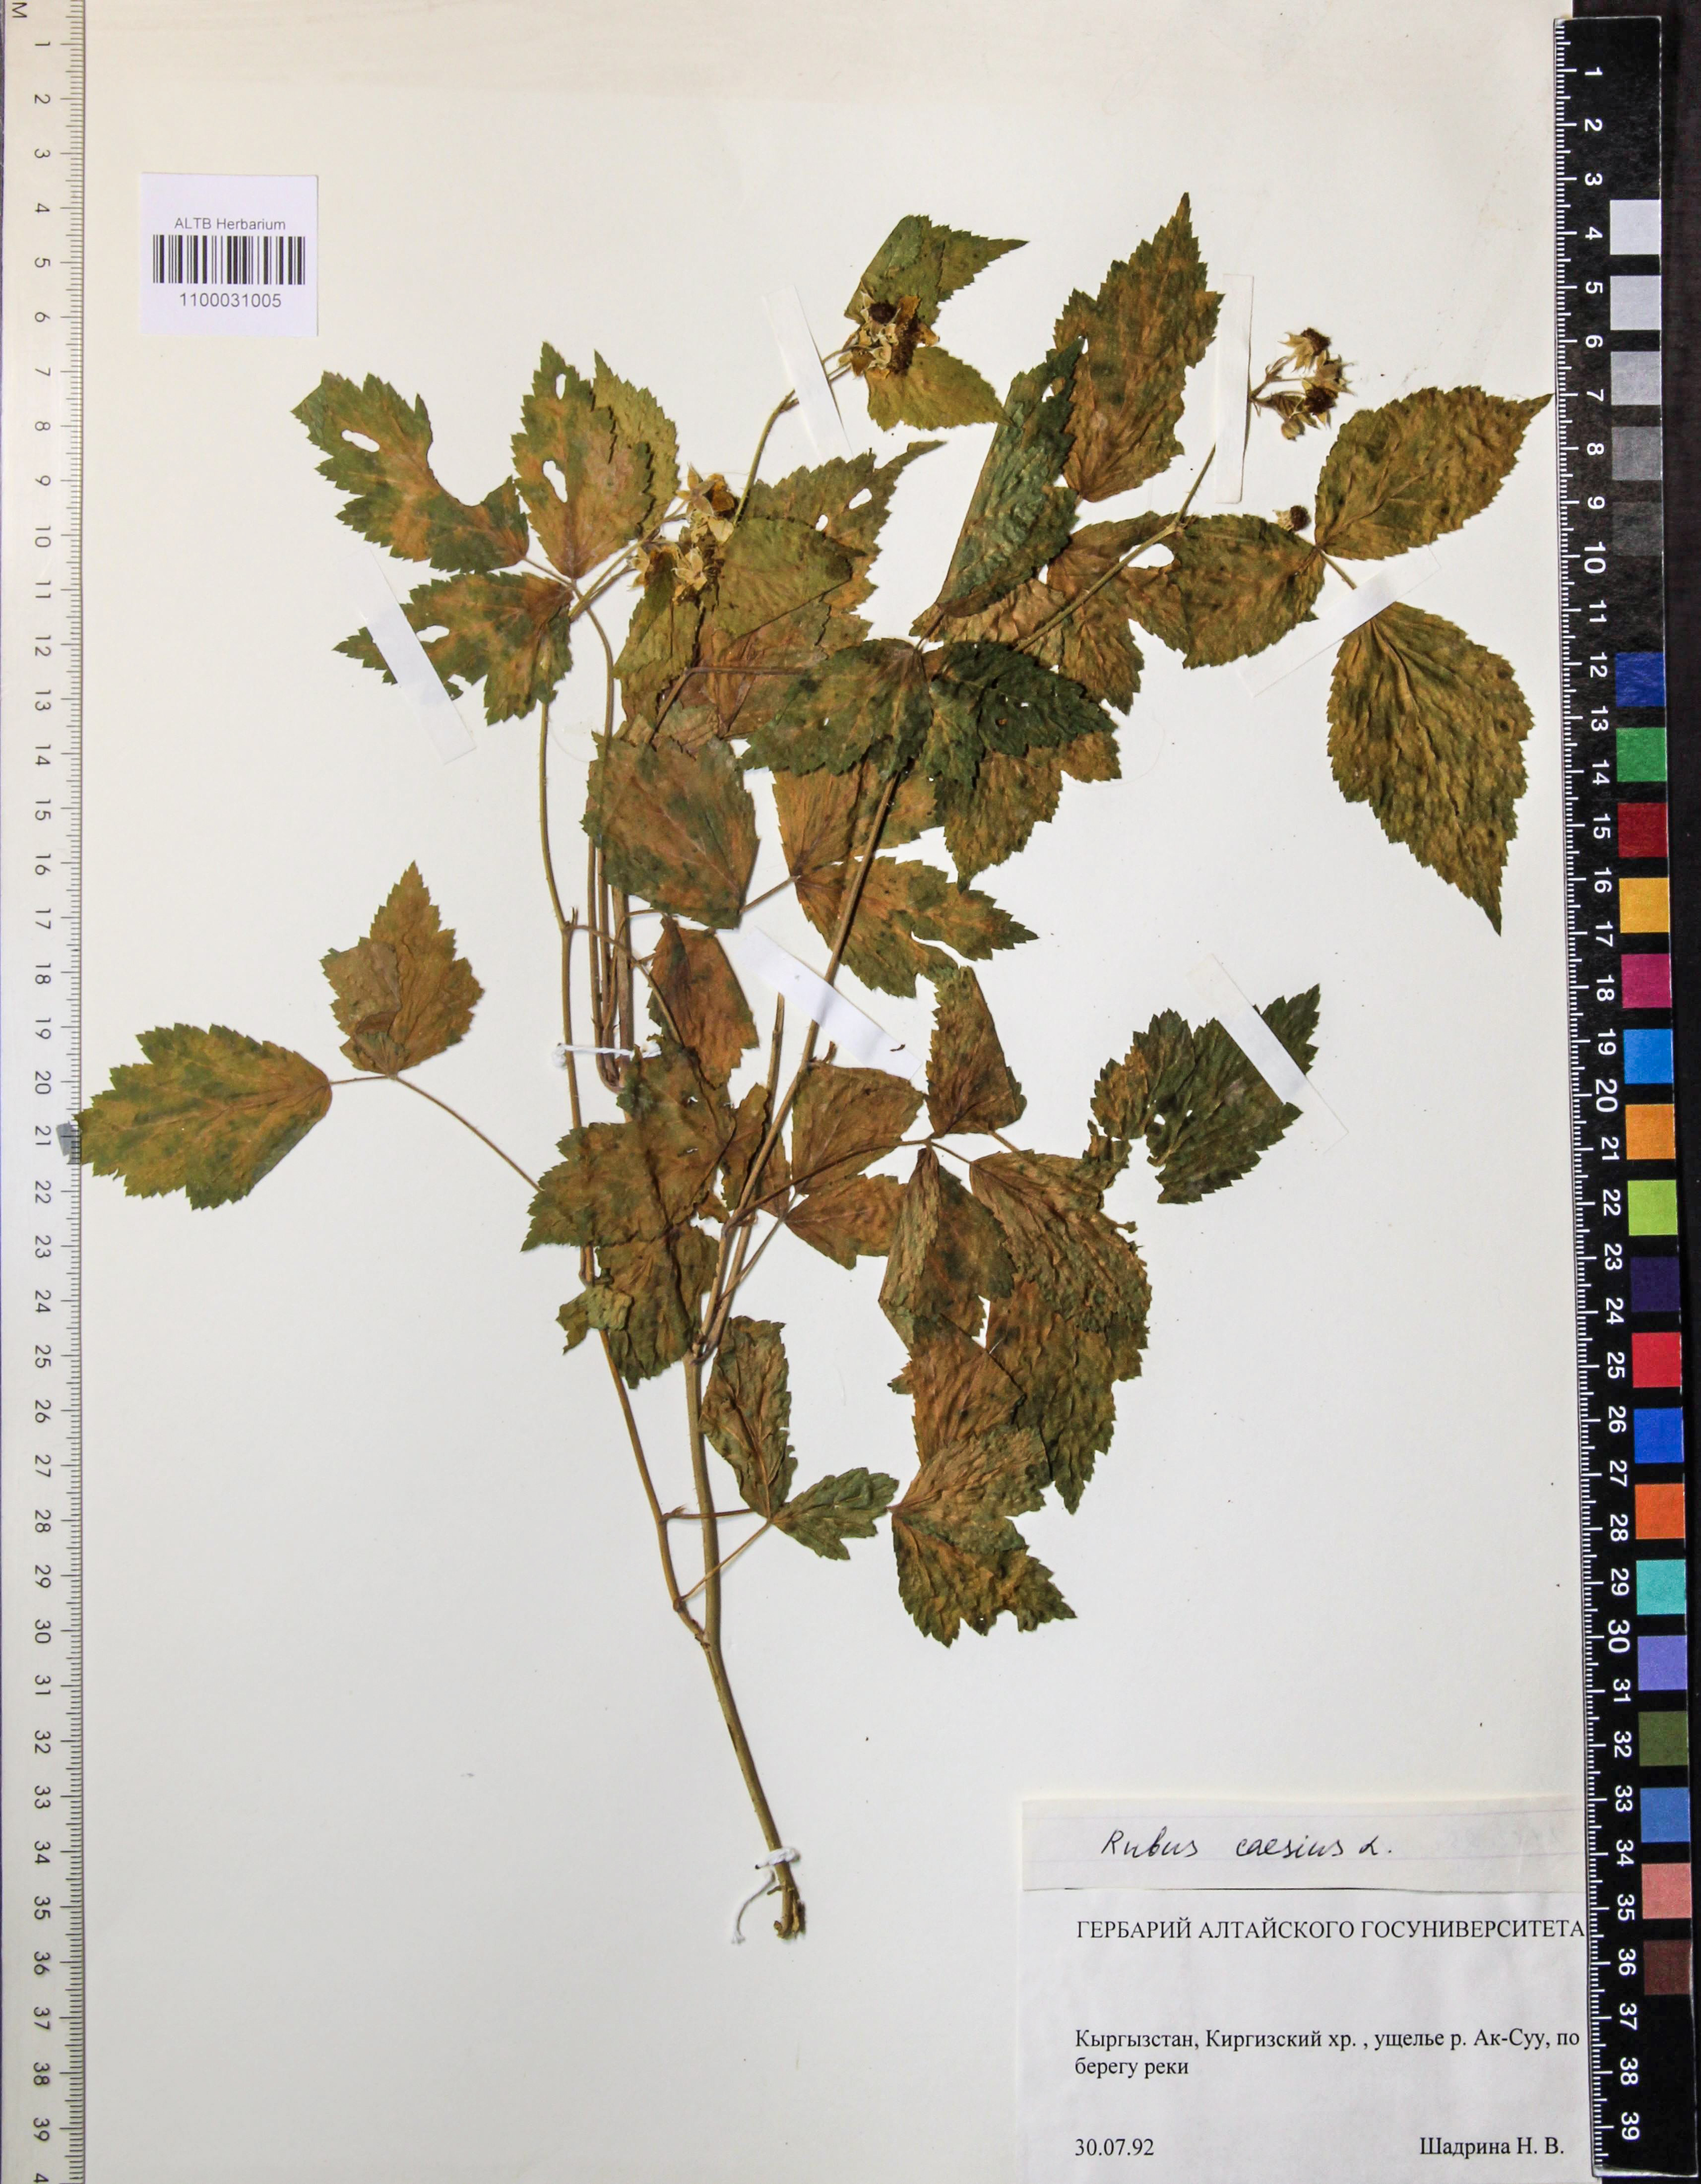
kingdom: Plantae
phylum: Tracheophyta
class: Magnoliopsida
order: Rosales
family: Rosaceae
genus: Rubus
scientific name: Rubus caesius
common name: Dewberry
